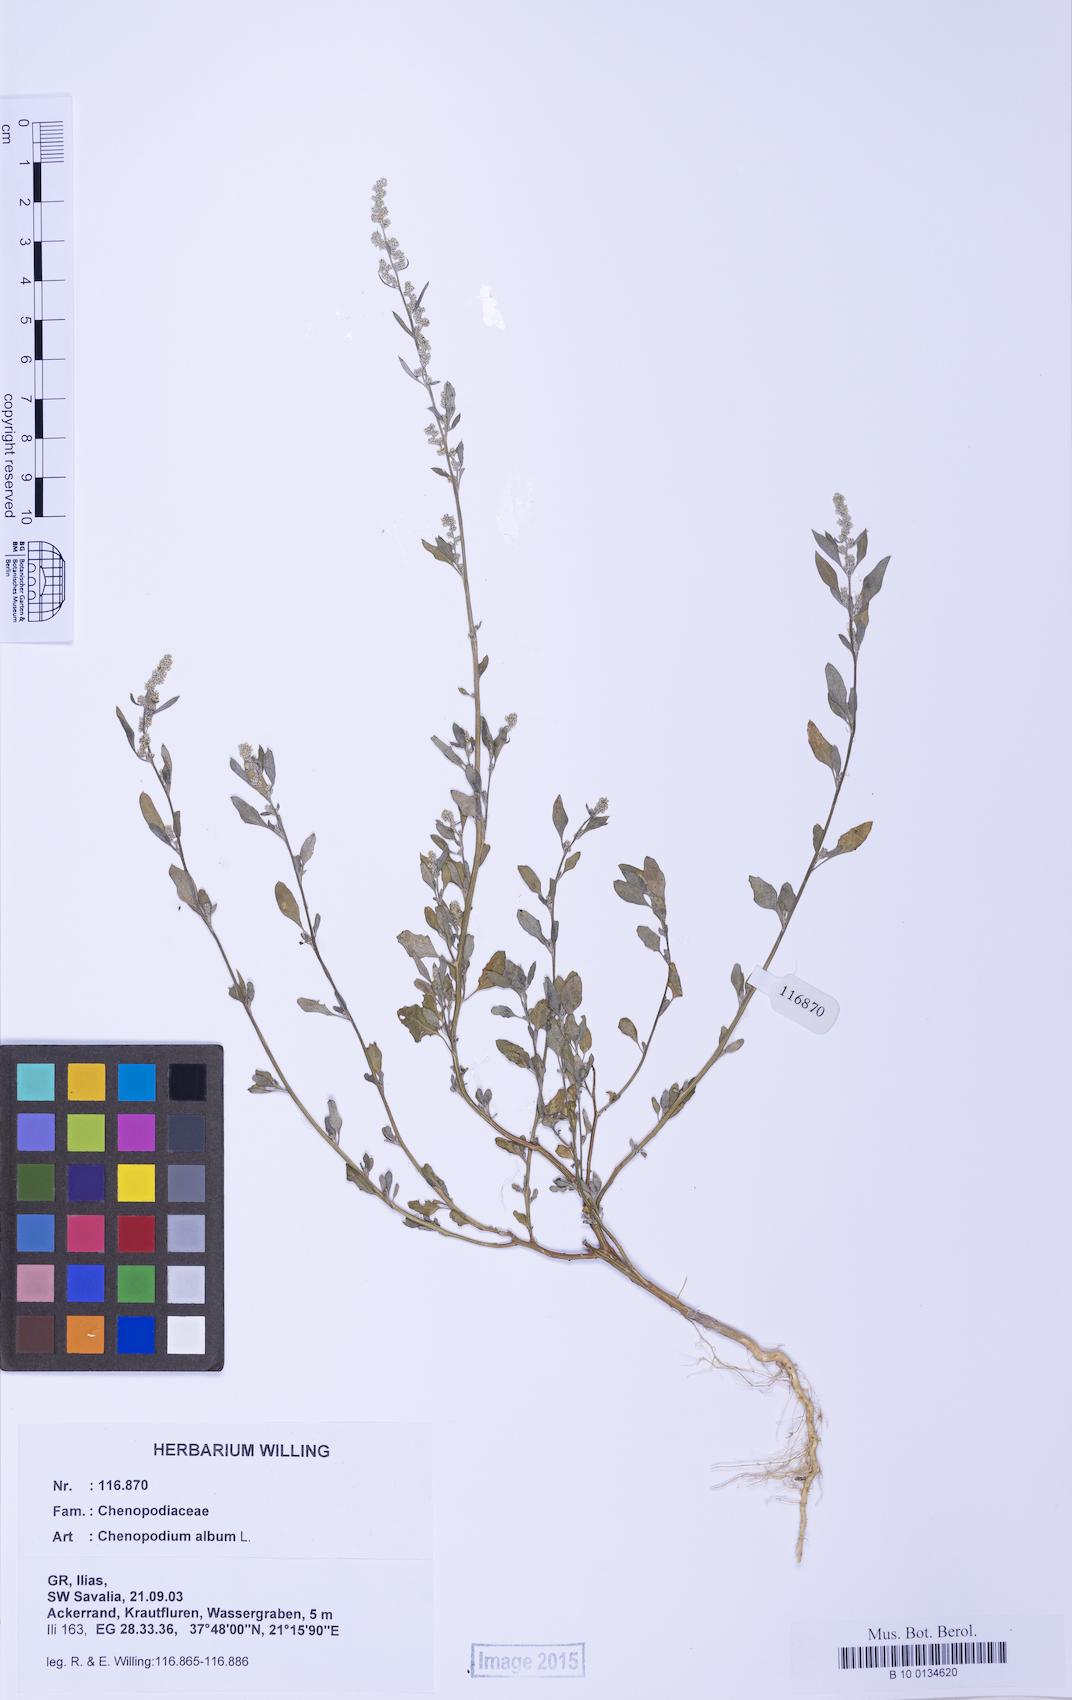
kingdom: Plantae
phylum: Tracheophyta
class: Magnoliopsida
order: Caryophyllales
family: Amaranthaceae
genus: Chenopodium
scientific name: Chenopodium striatiforme
